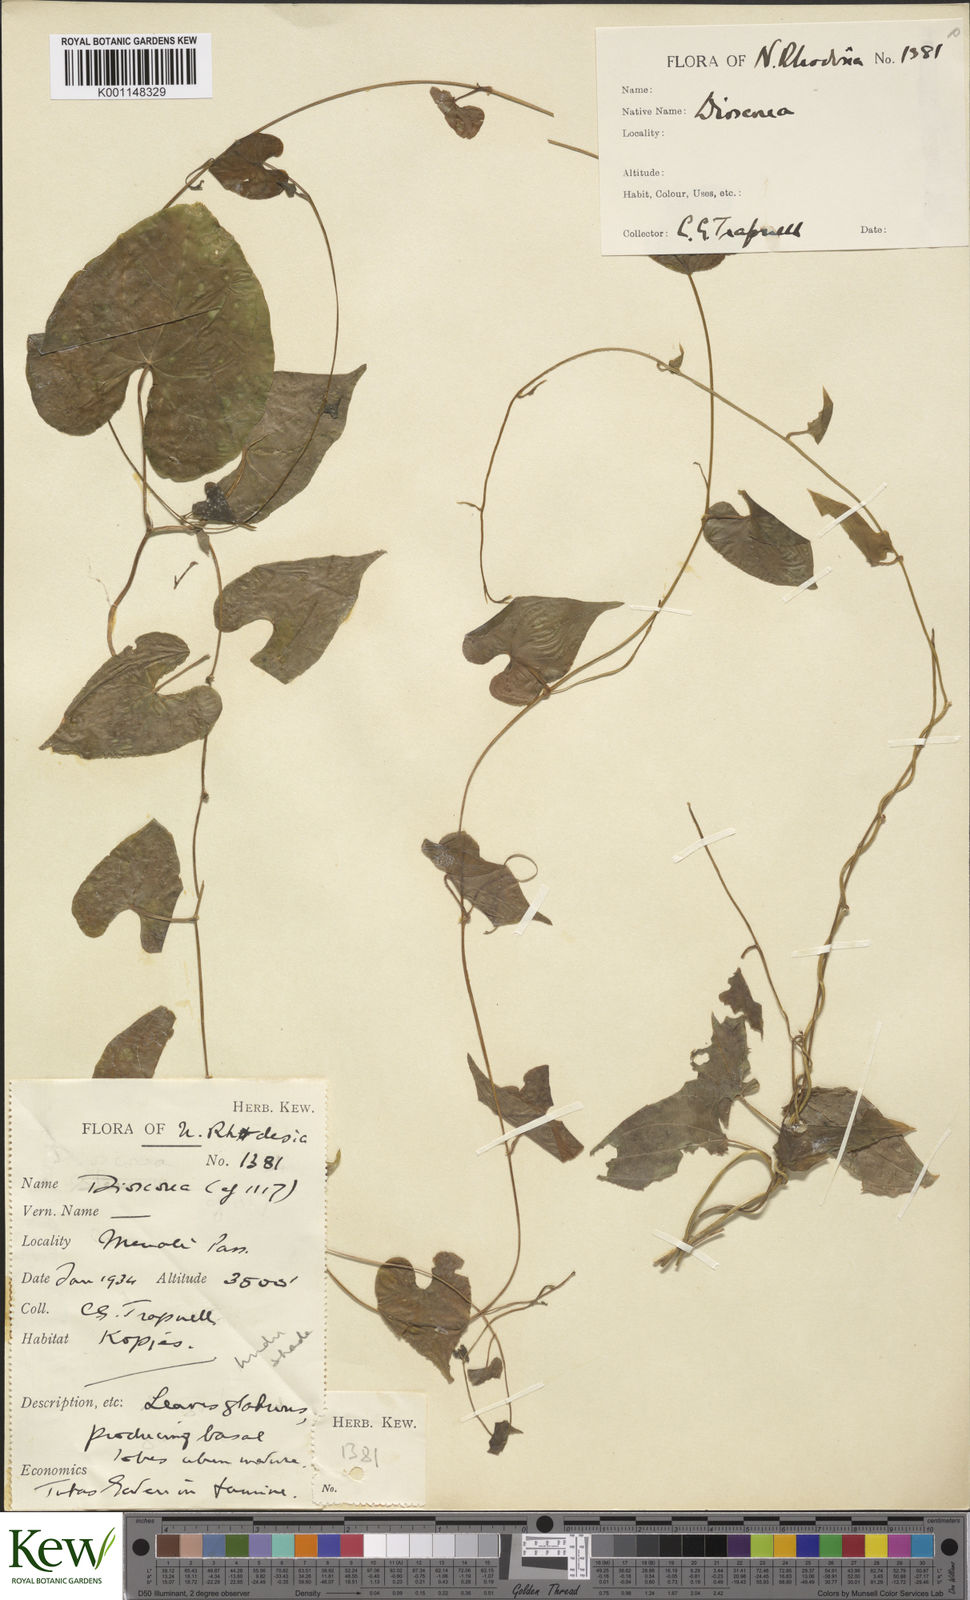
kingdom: Plantae
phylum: Tracheophyta
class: Liliopsida
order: Dioscoreales
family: Dioscoreaceae
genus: Dioscorea
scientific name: Dioscorea
